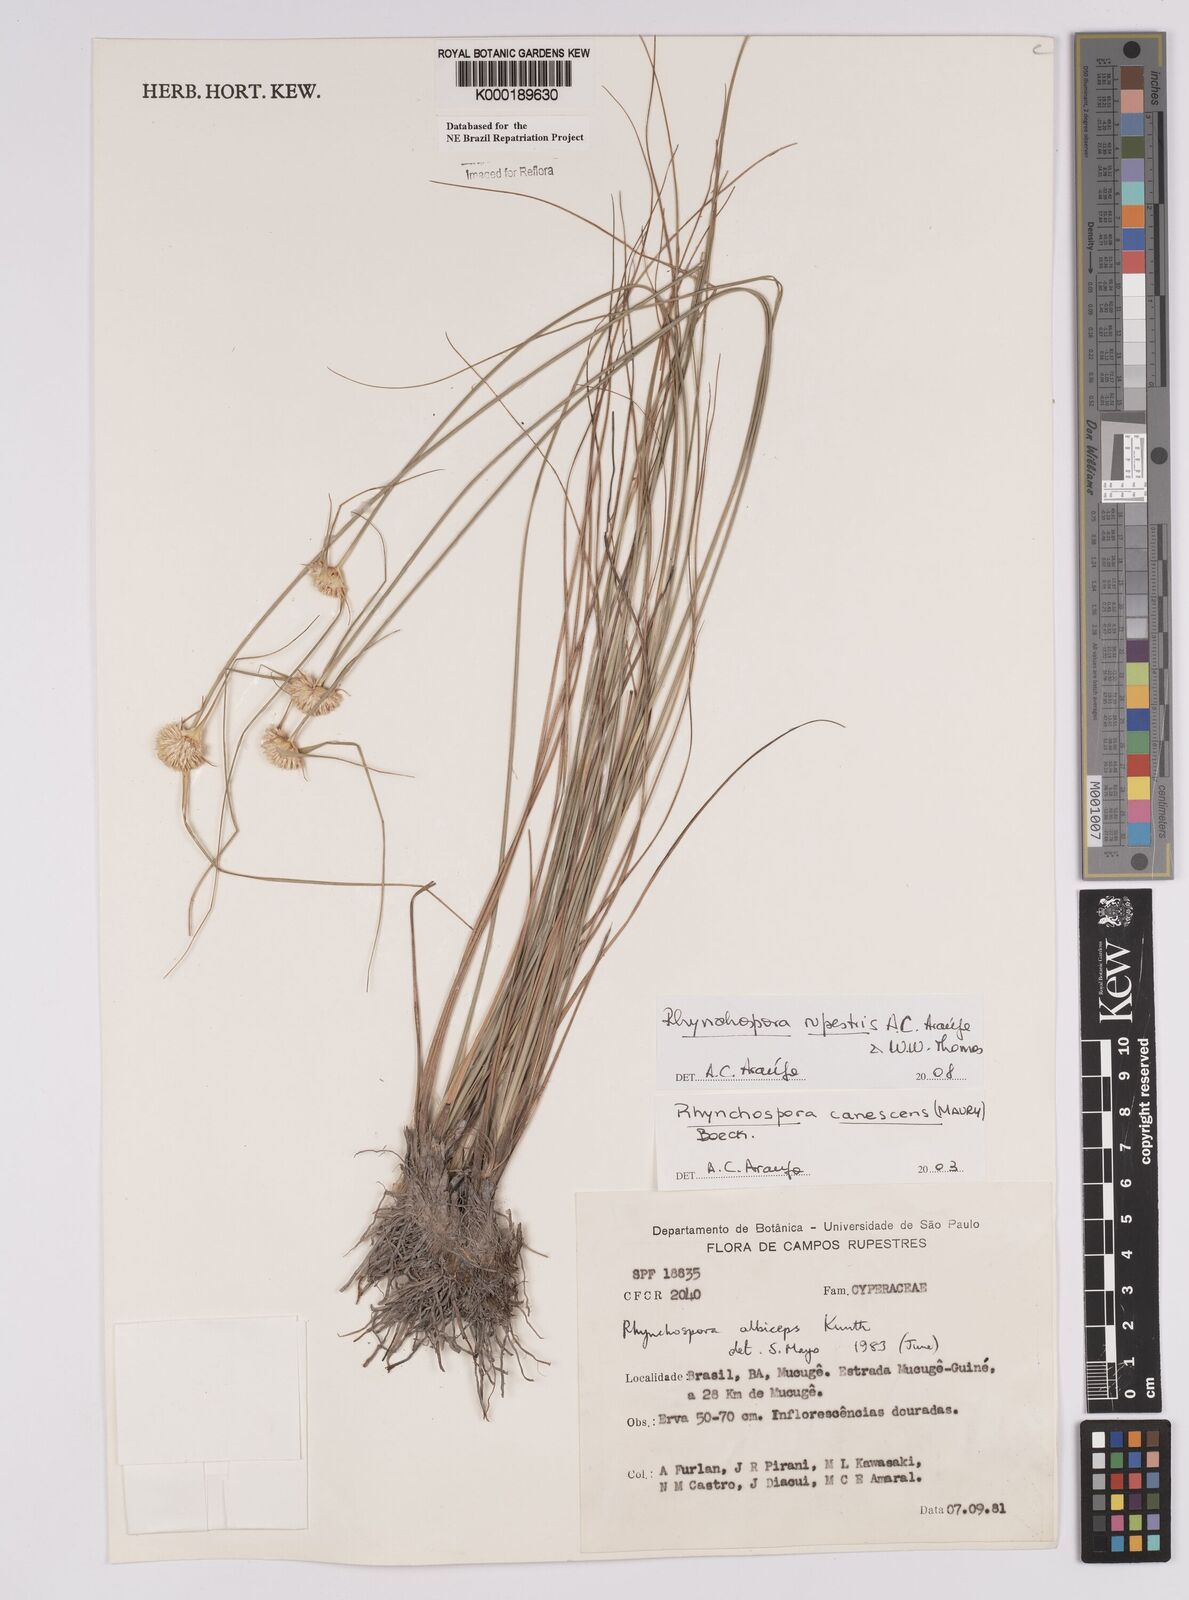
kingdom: Plantae
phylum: Tracheophyta
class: Liliopsida
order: Poales
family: Cyperaceae
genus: Rhynchospora
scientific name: Rhynchospora albiceps
